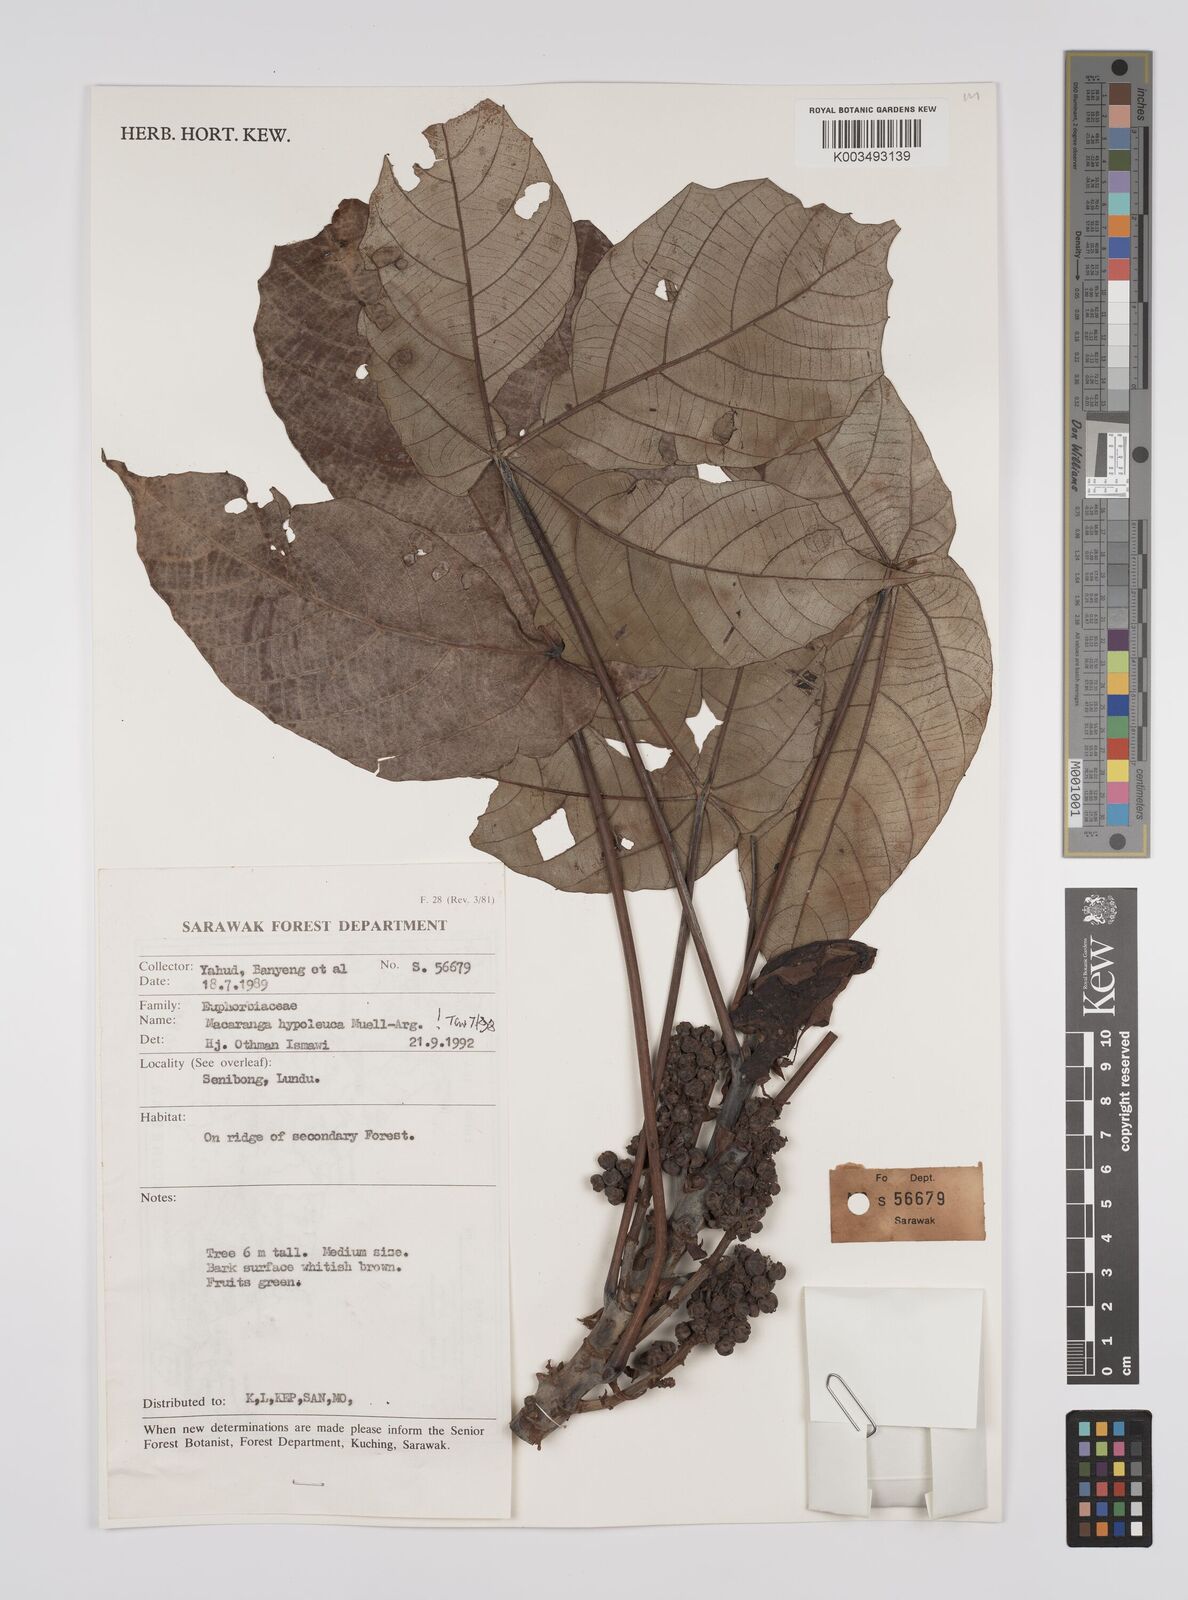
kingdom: Plantae
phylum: Tracheophyta
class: Magnoliopsida
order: Malpighiales
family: Euphorbiaceae
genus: Macaranga
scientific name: Macaranga hypoleuca
